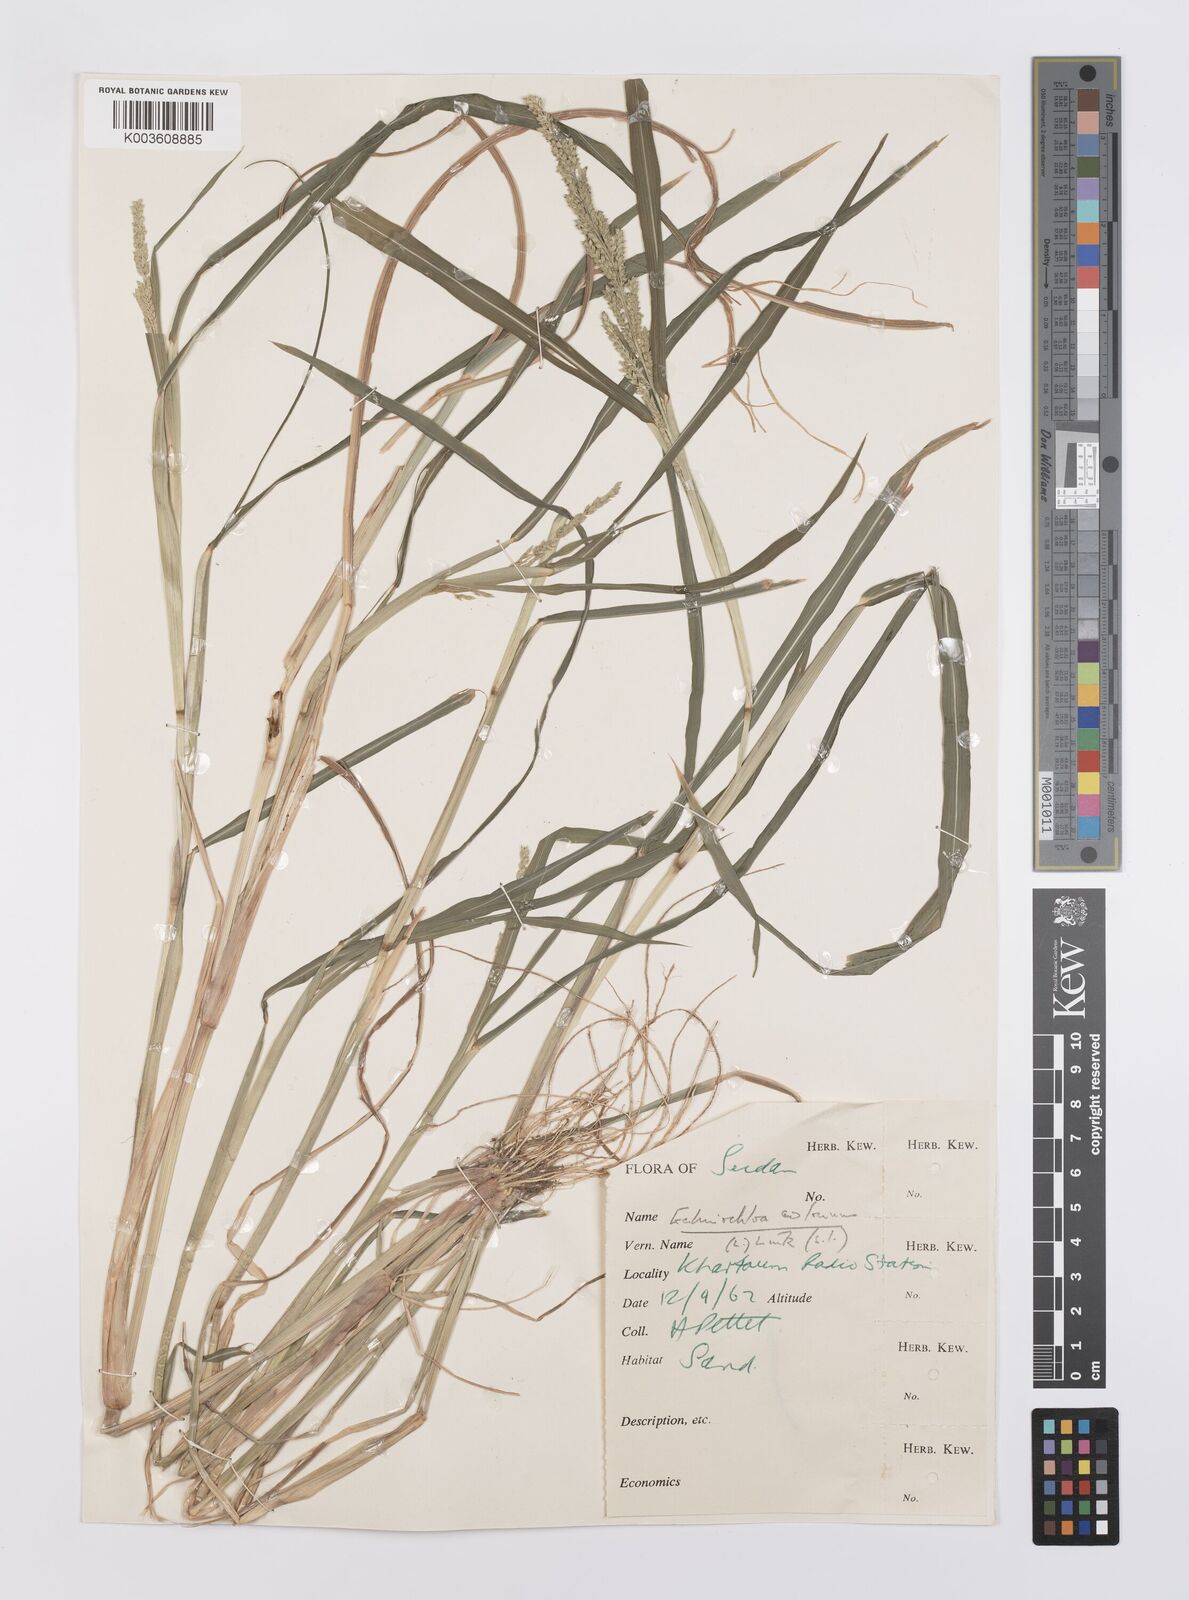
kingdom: Plantae
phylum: Tracheophyta
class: Liliopsida
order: Poales
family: Poaceae
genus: Echinochloa
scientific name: Echinochloa colonum
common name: Jungle rice
